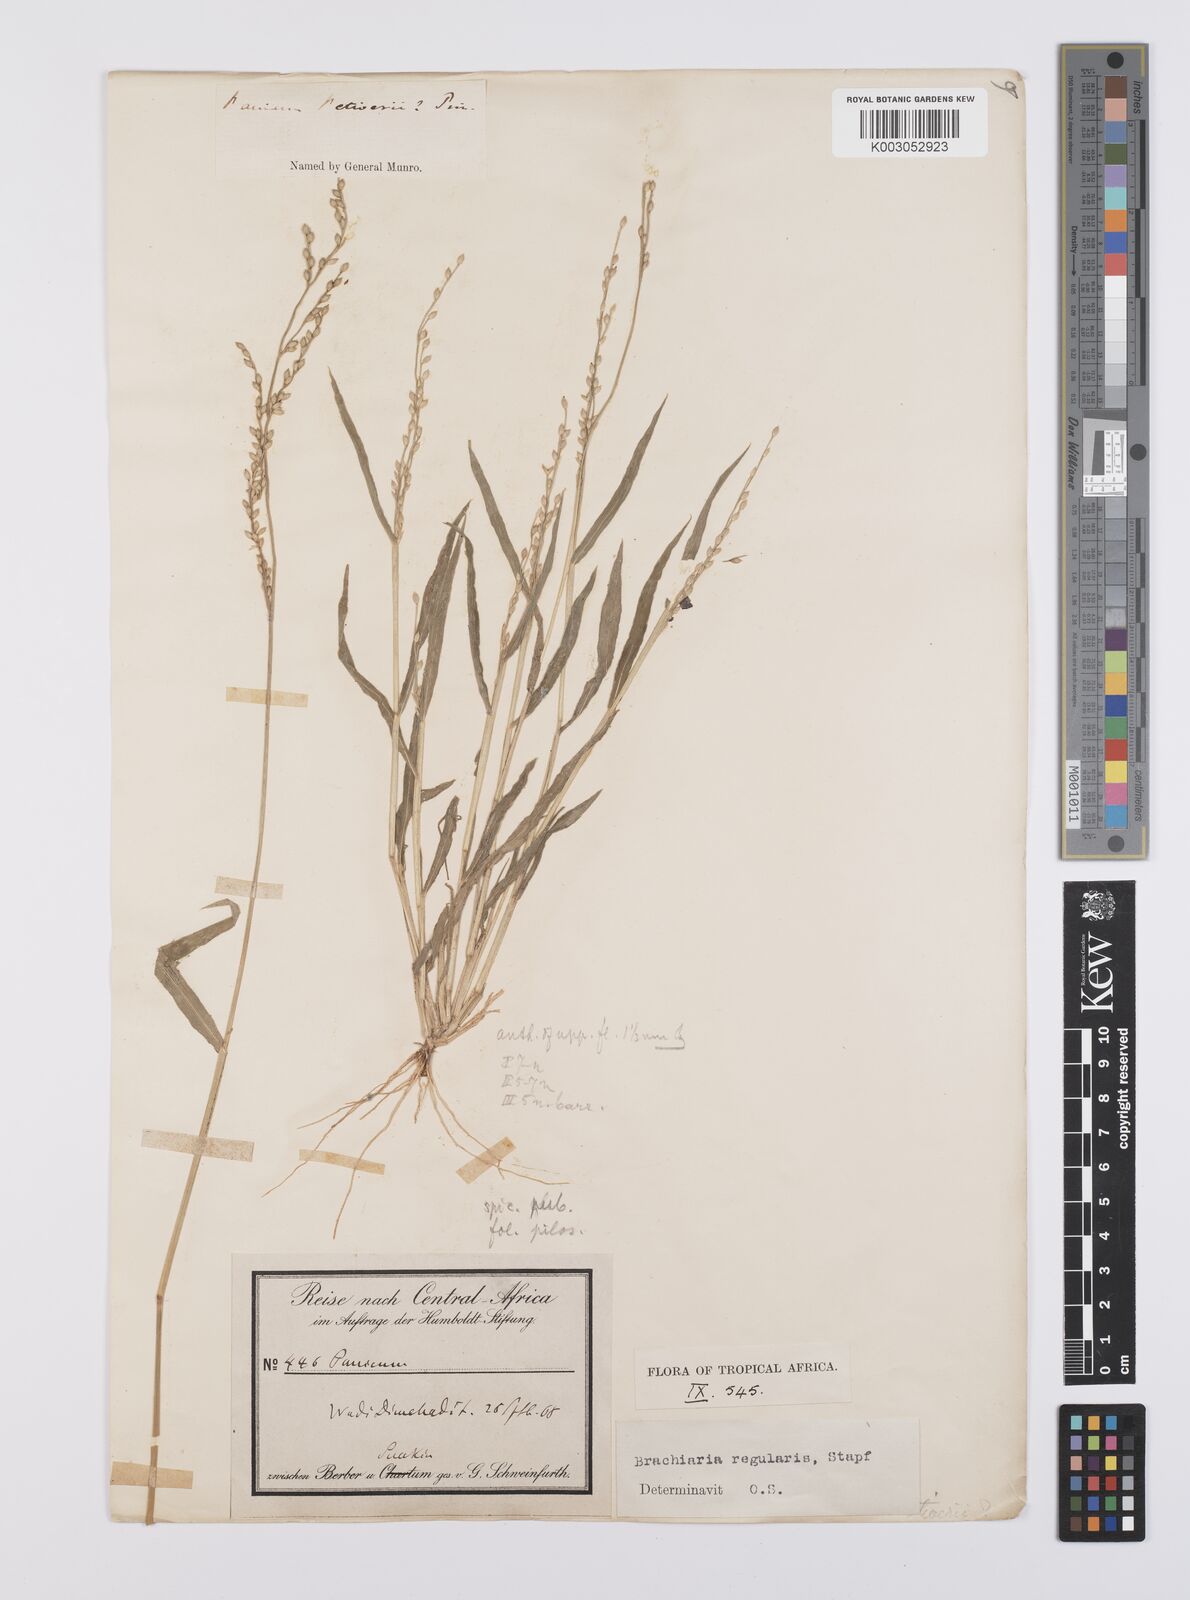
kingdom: Plantae
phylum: Tracheophyta
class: Liliopsida
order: Poales
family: Poaceae
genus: Urochloa
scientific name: Urochloa ramosa
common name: Browntop millet
